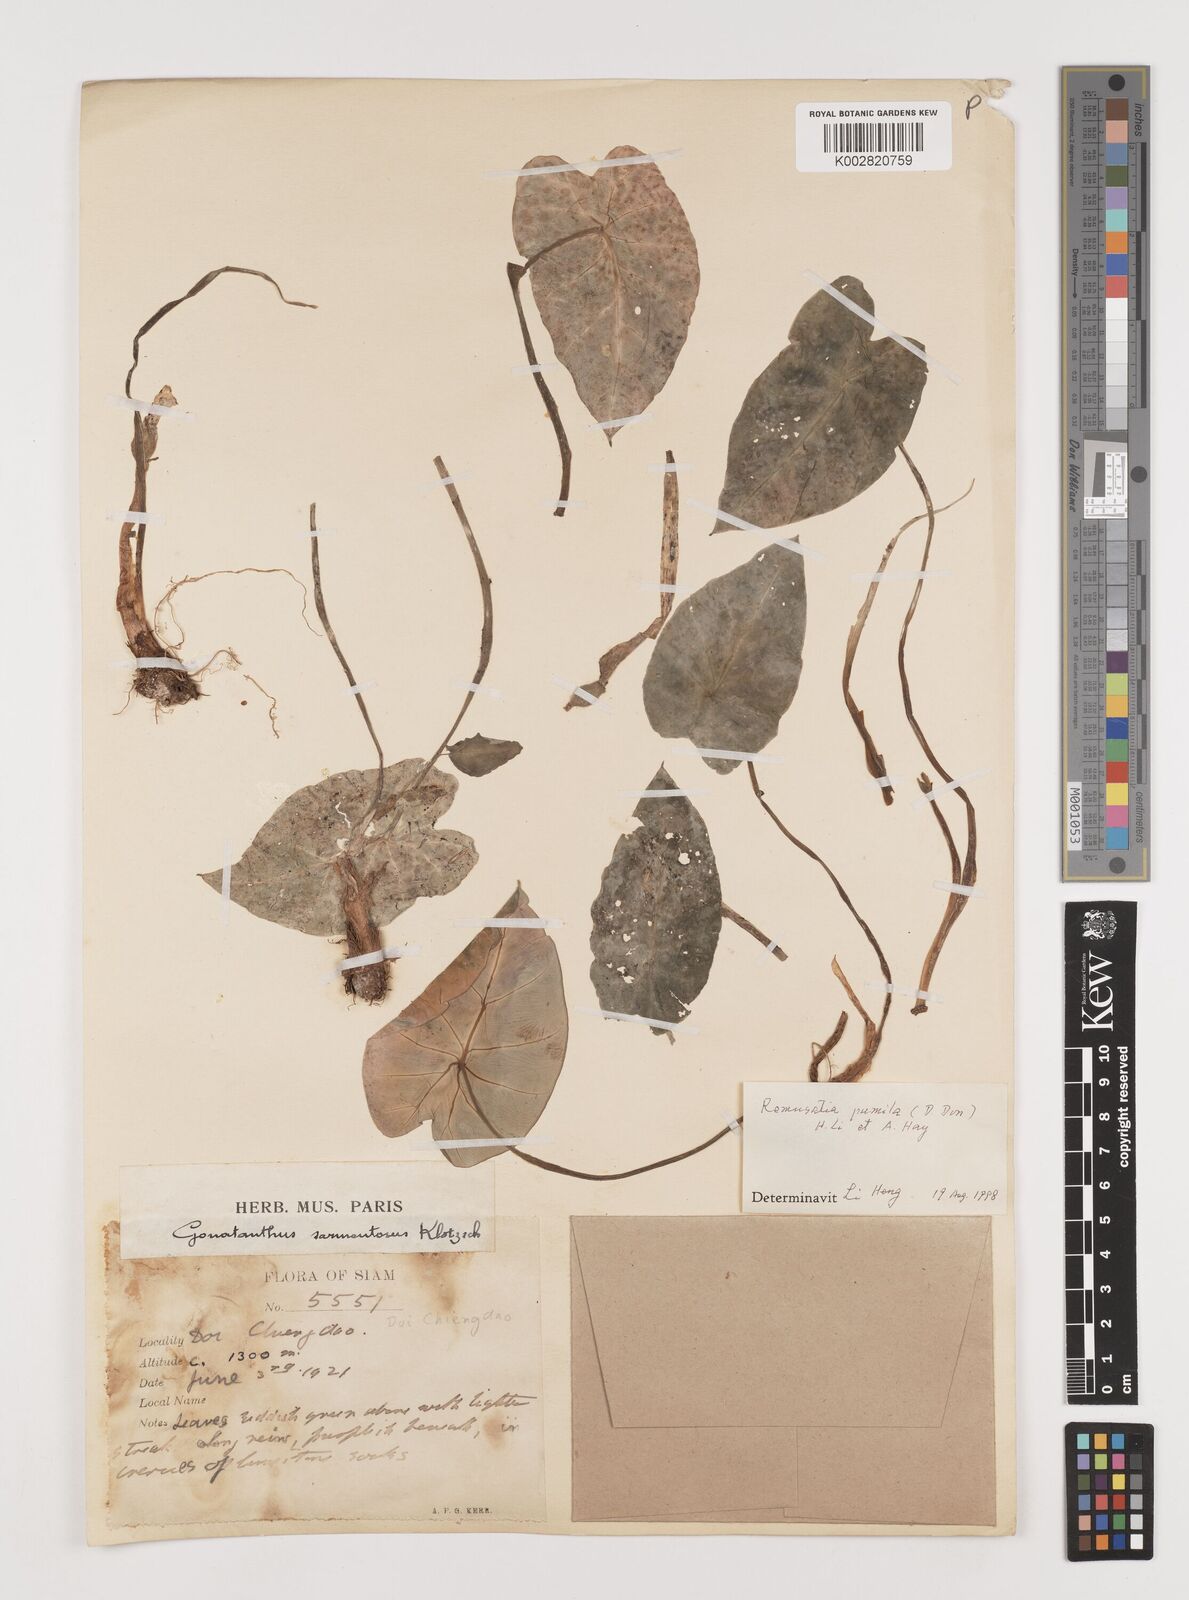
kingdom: Plantae
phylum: Tracheophyta
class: Liliopsida
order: Alismatales
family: Araceae
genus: Remusatia
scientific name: Remusatia pumila
